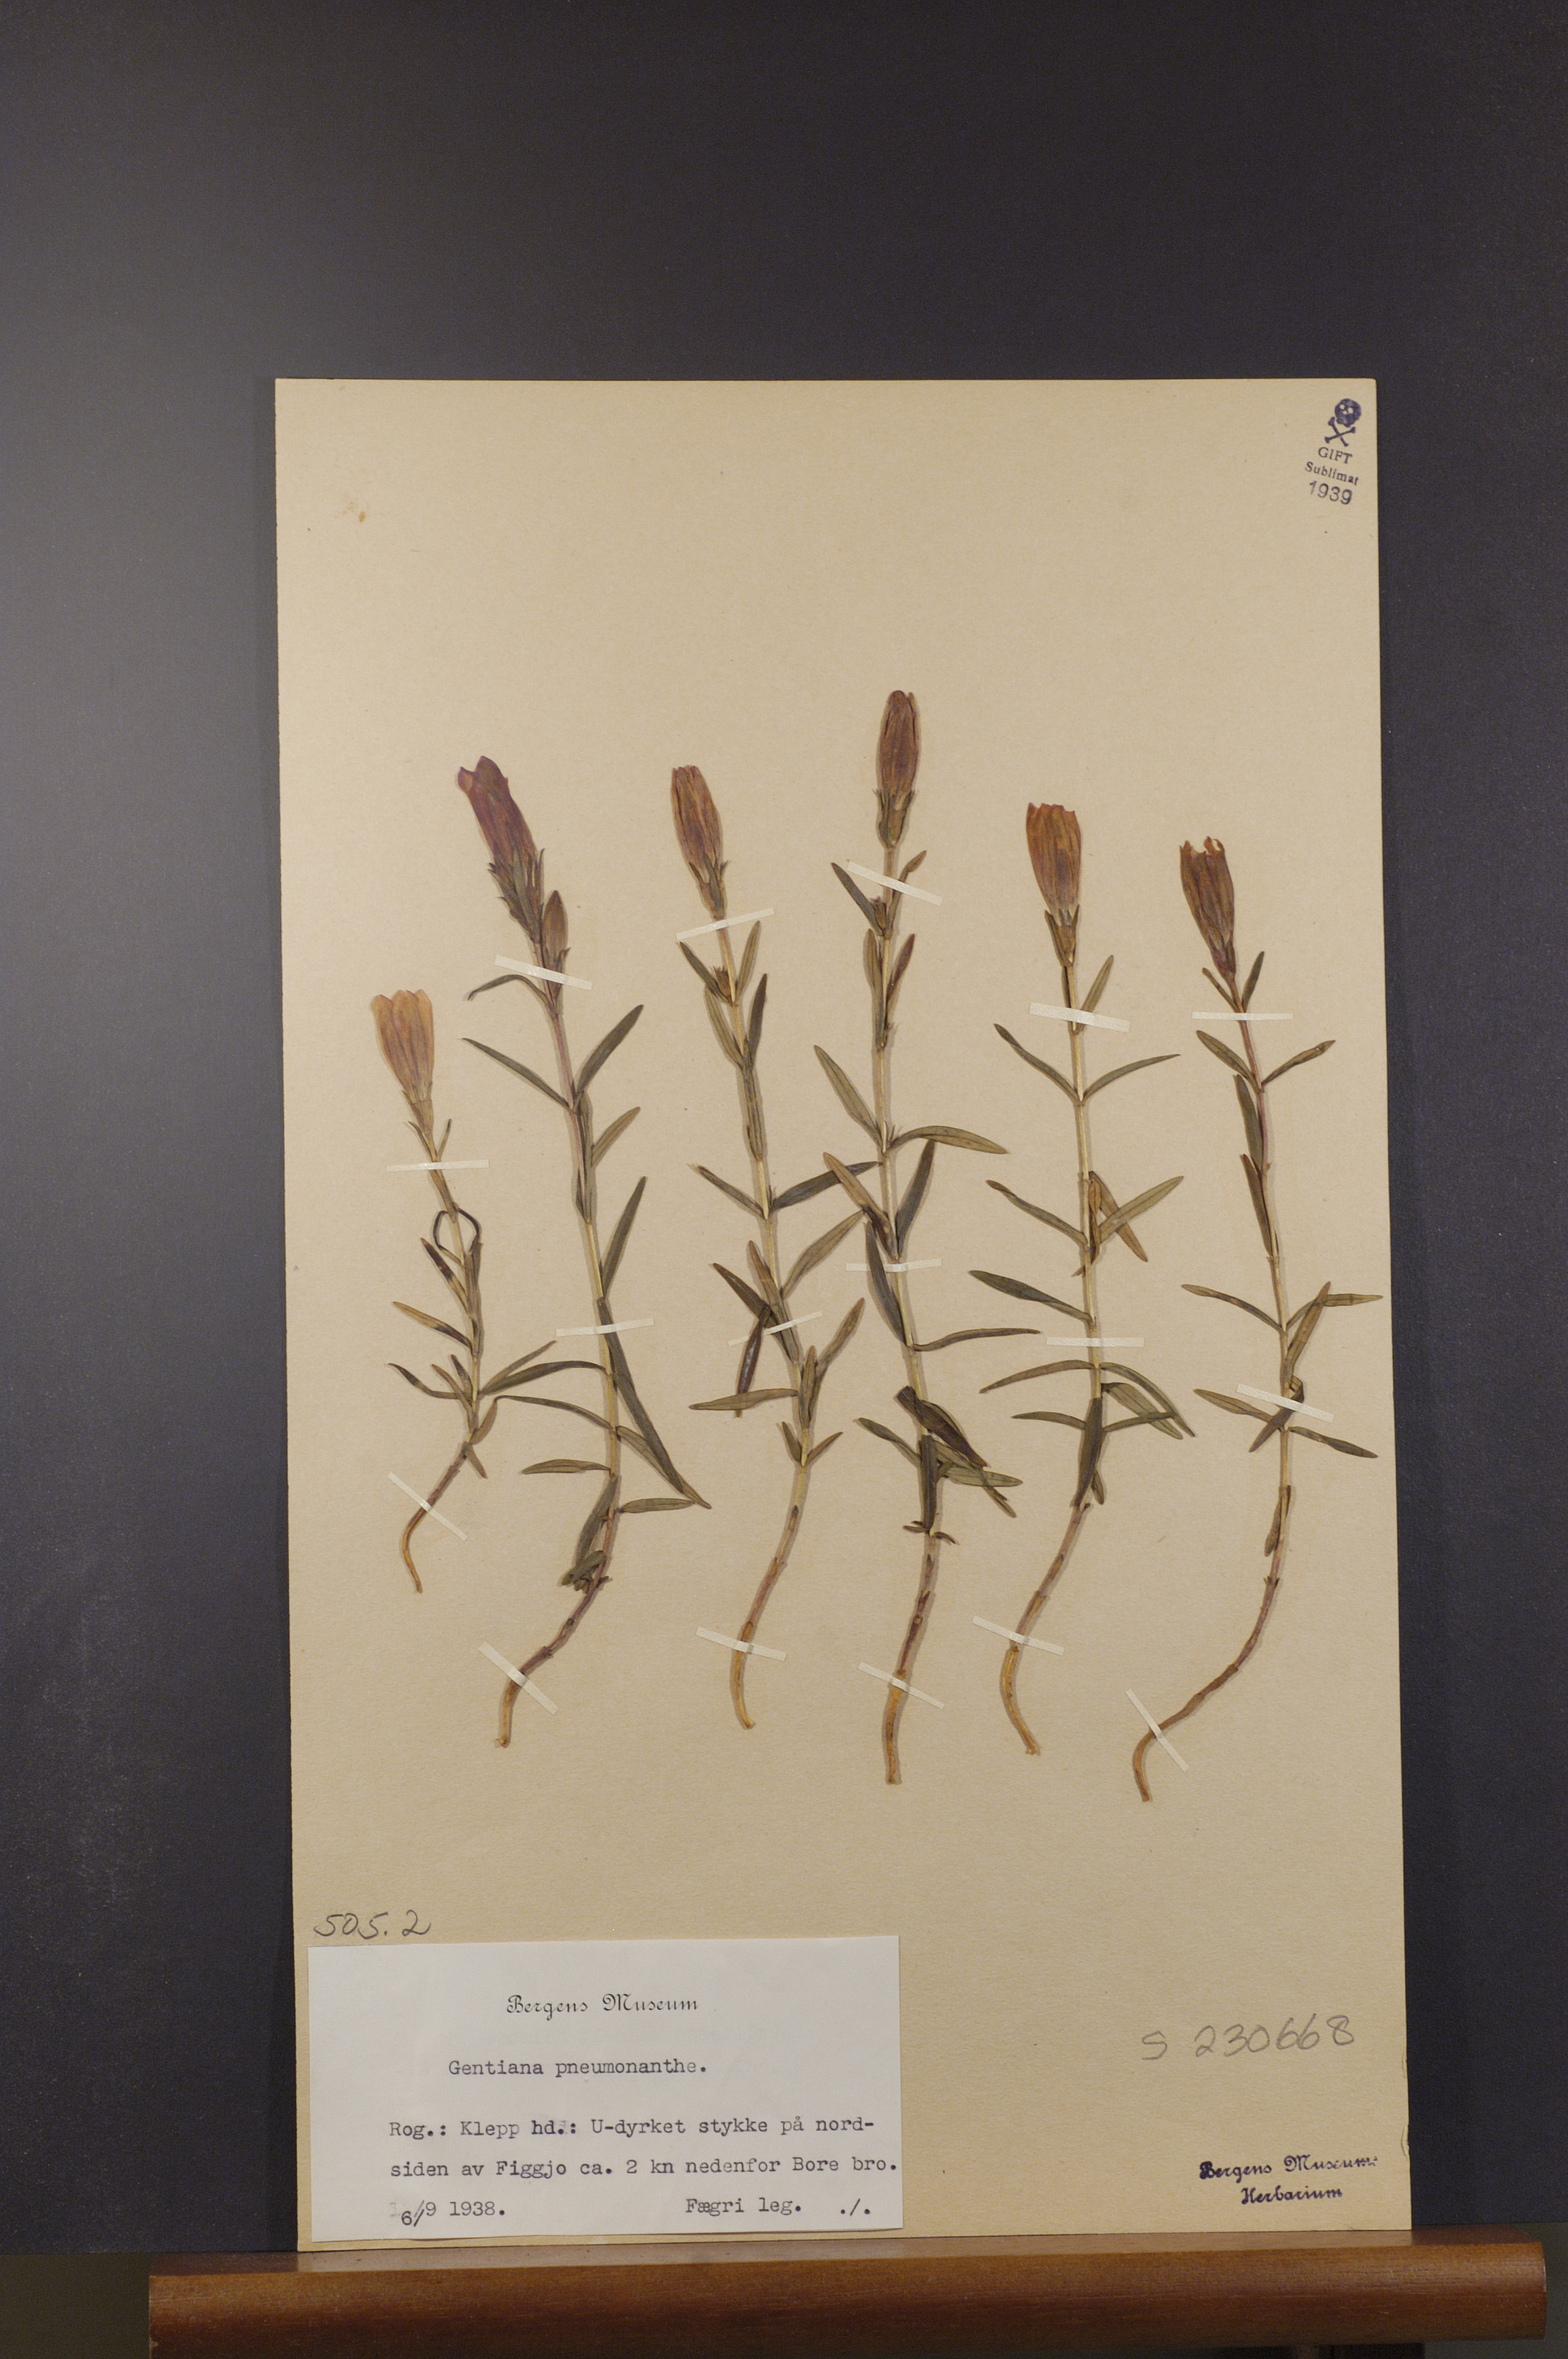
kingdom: Plantae
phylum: Tracheophyta
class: Magnoliopsida
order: Gentianales
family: Gentianaceae
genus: Gentiana
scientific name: Gentiana pneumonanthe
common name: Marsh gentian
